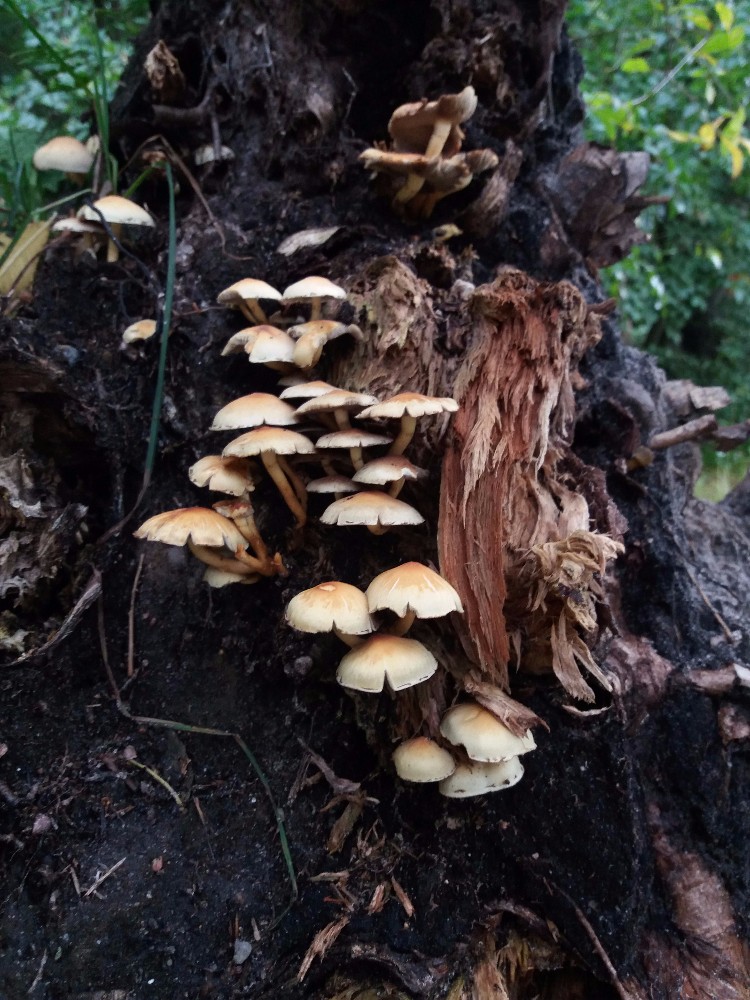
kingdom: Fungi
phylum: Basidiomycota
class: Agaricomycetes
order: Agaricales
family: Strophariaceae
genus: Hypholoma
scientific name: Hypholoma fasciculare
